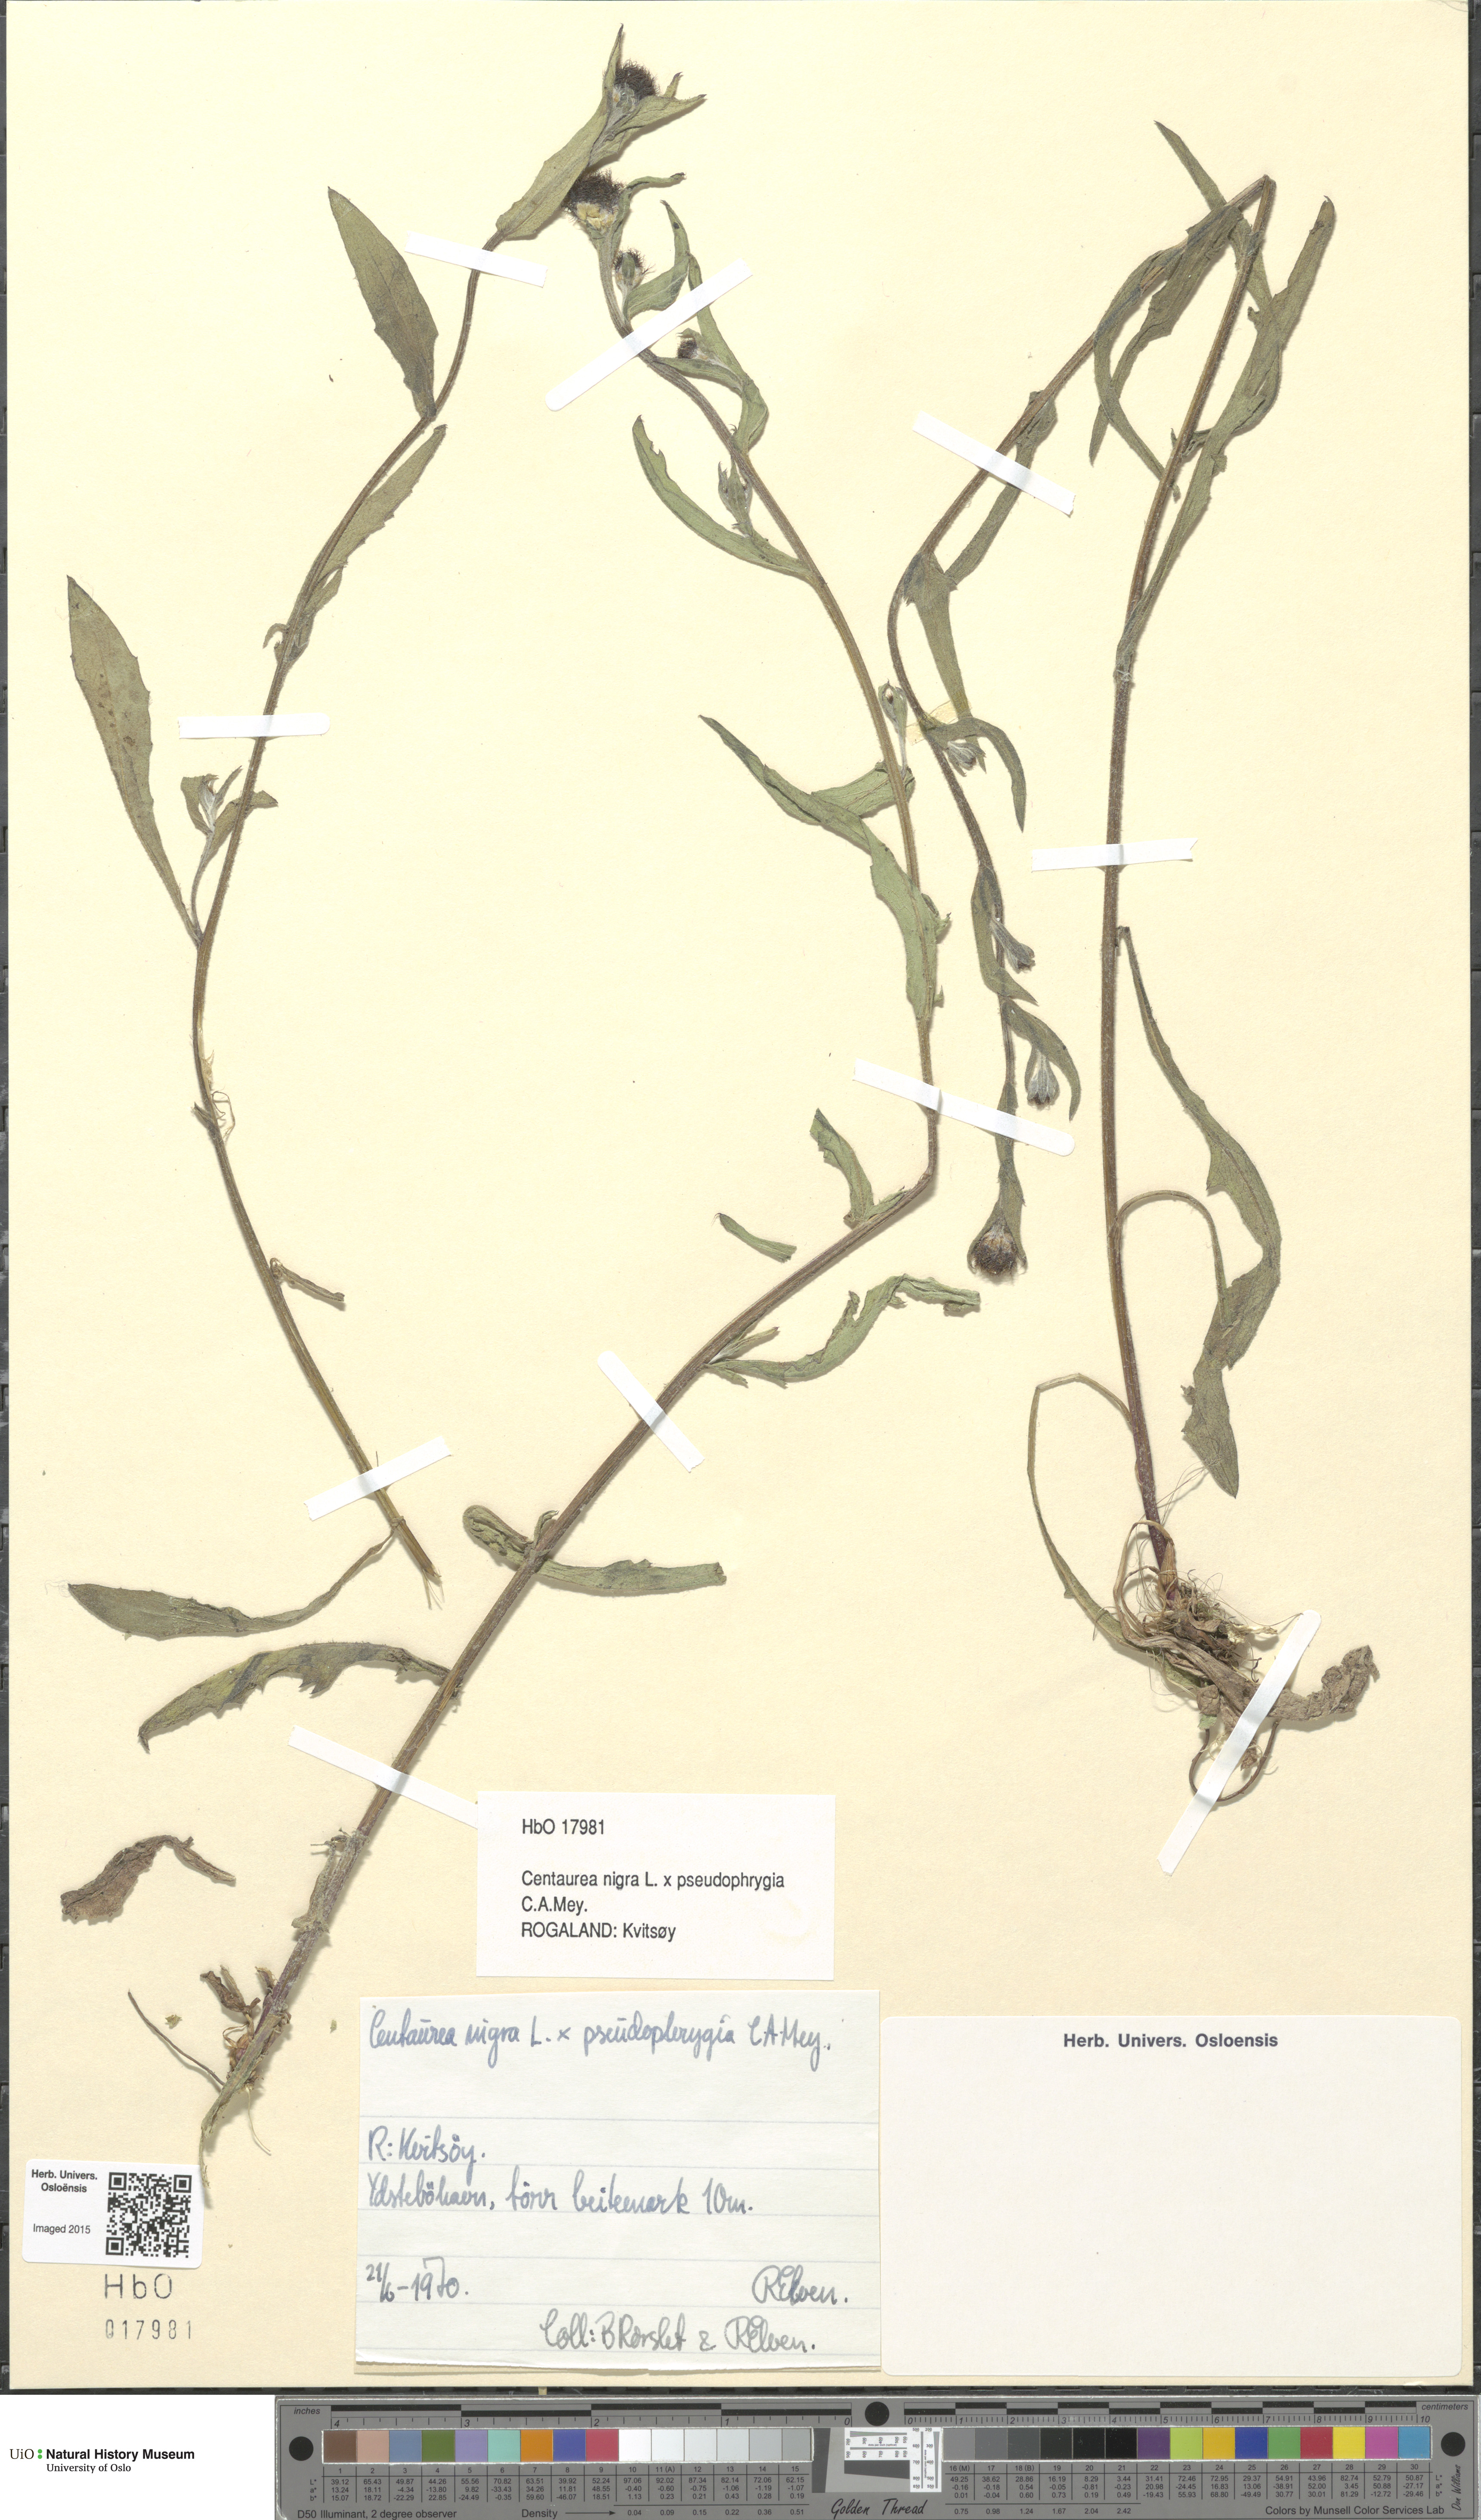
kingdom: Plantae
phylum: Tracheophyta
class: Magnoliopsida
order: Asterales
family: Asteraceae
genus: Centaurea
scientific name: Centaurea
